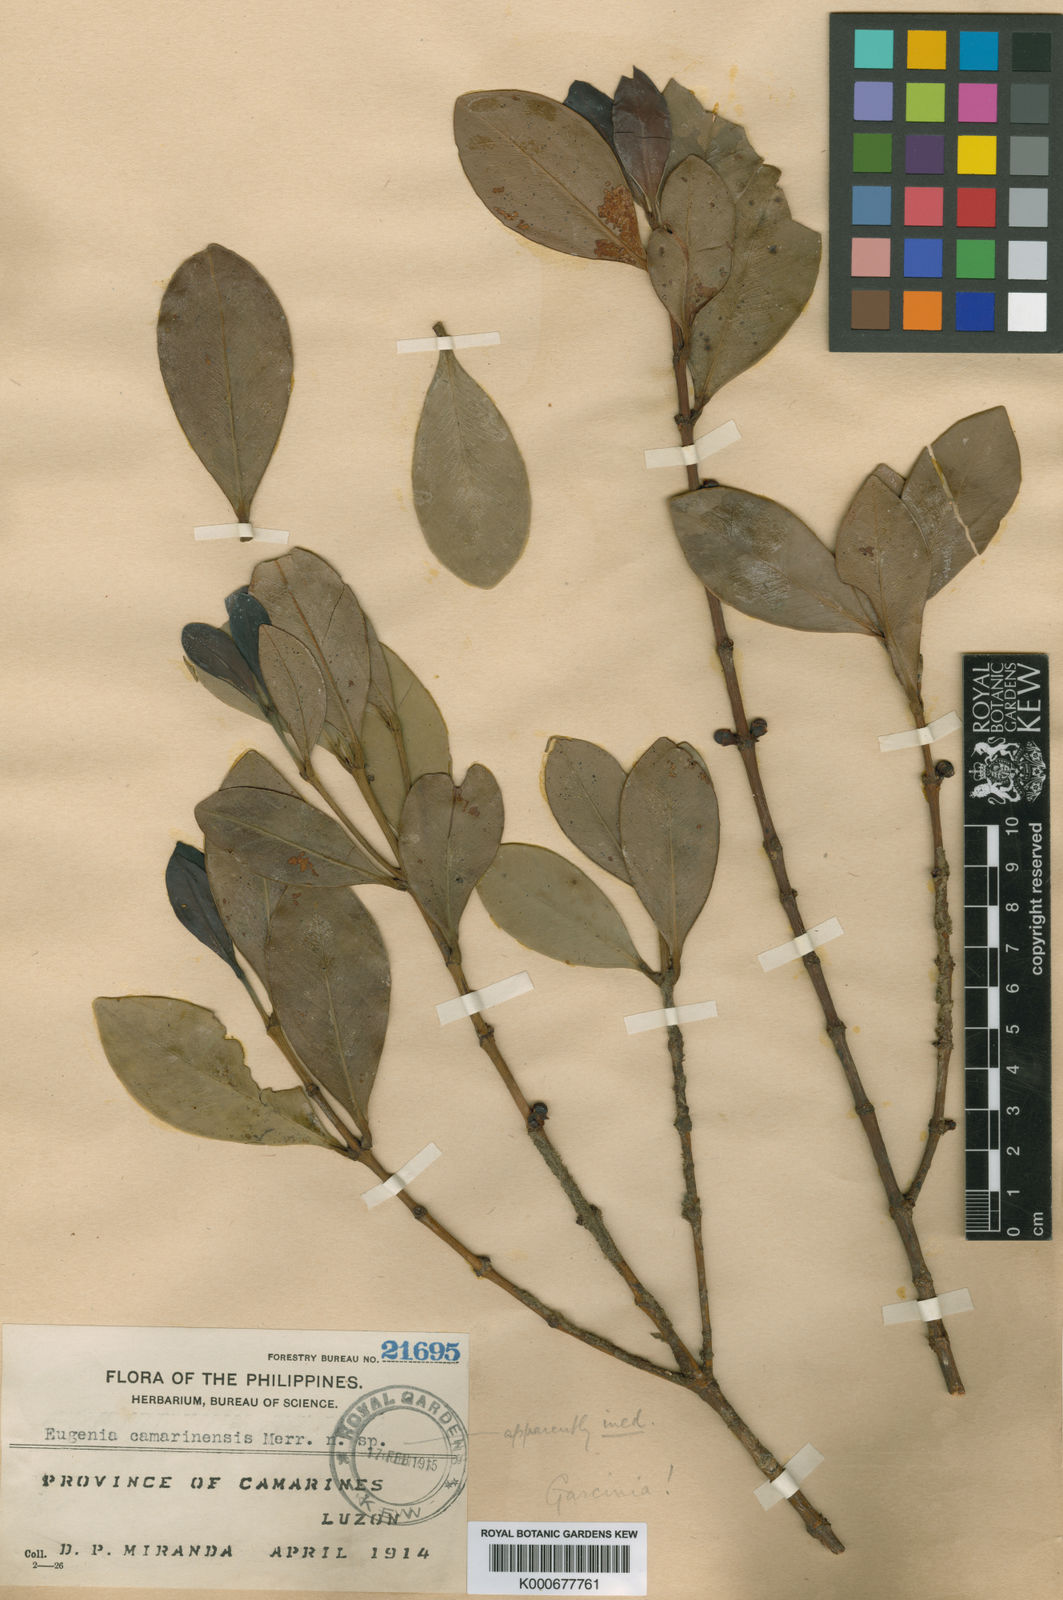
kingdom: Plantae
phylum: Tracheophyta
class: Magnoliopsida
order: Malpighiales
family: Clusiaceae
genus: Garcinia
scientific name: Garcinia
